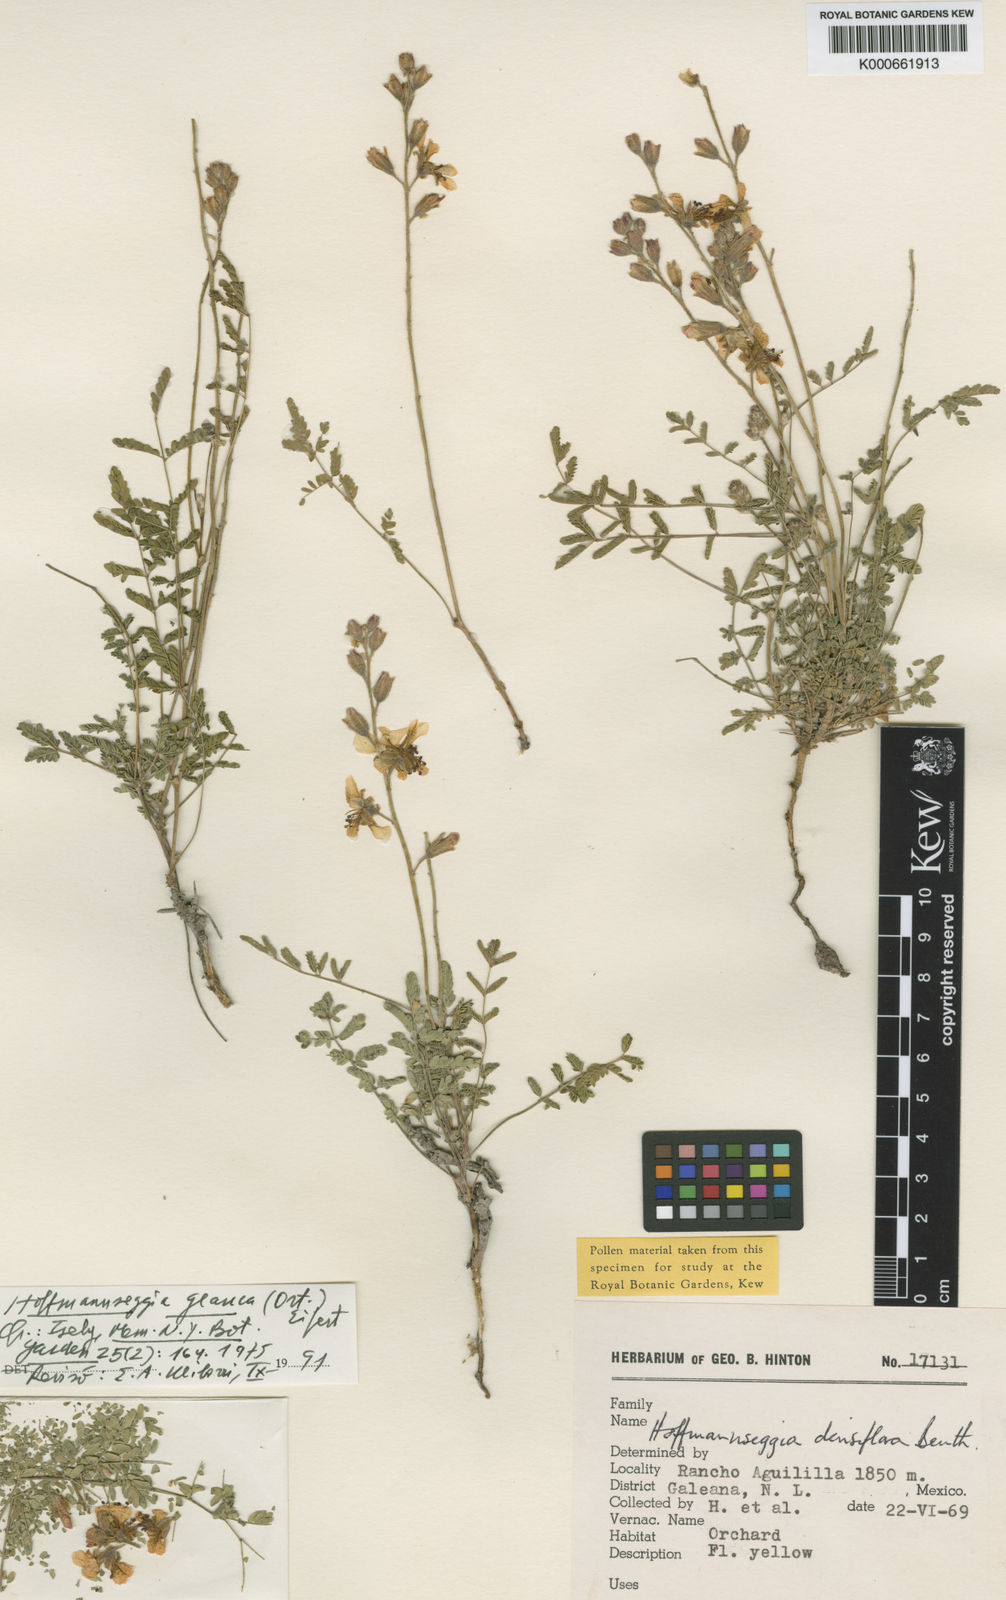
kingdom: Plantae
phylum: Tracheophyta
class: Magnoliopsida
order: Fabales
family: Fabaceae
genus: Hoffmannseggia
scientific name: Hoffmannseggia glauca
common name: Pignut
